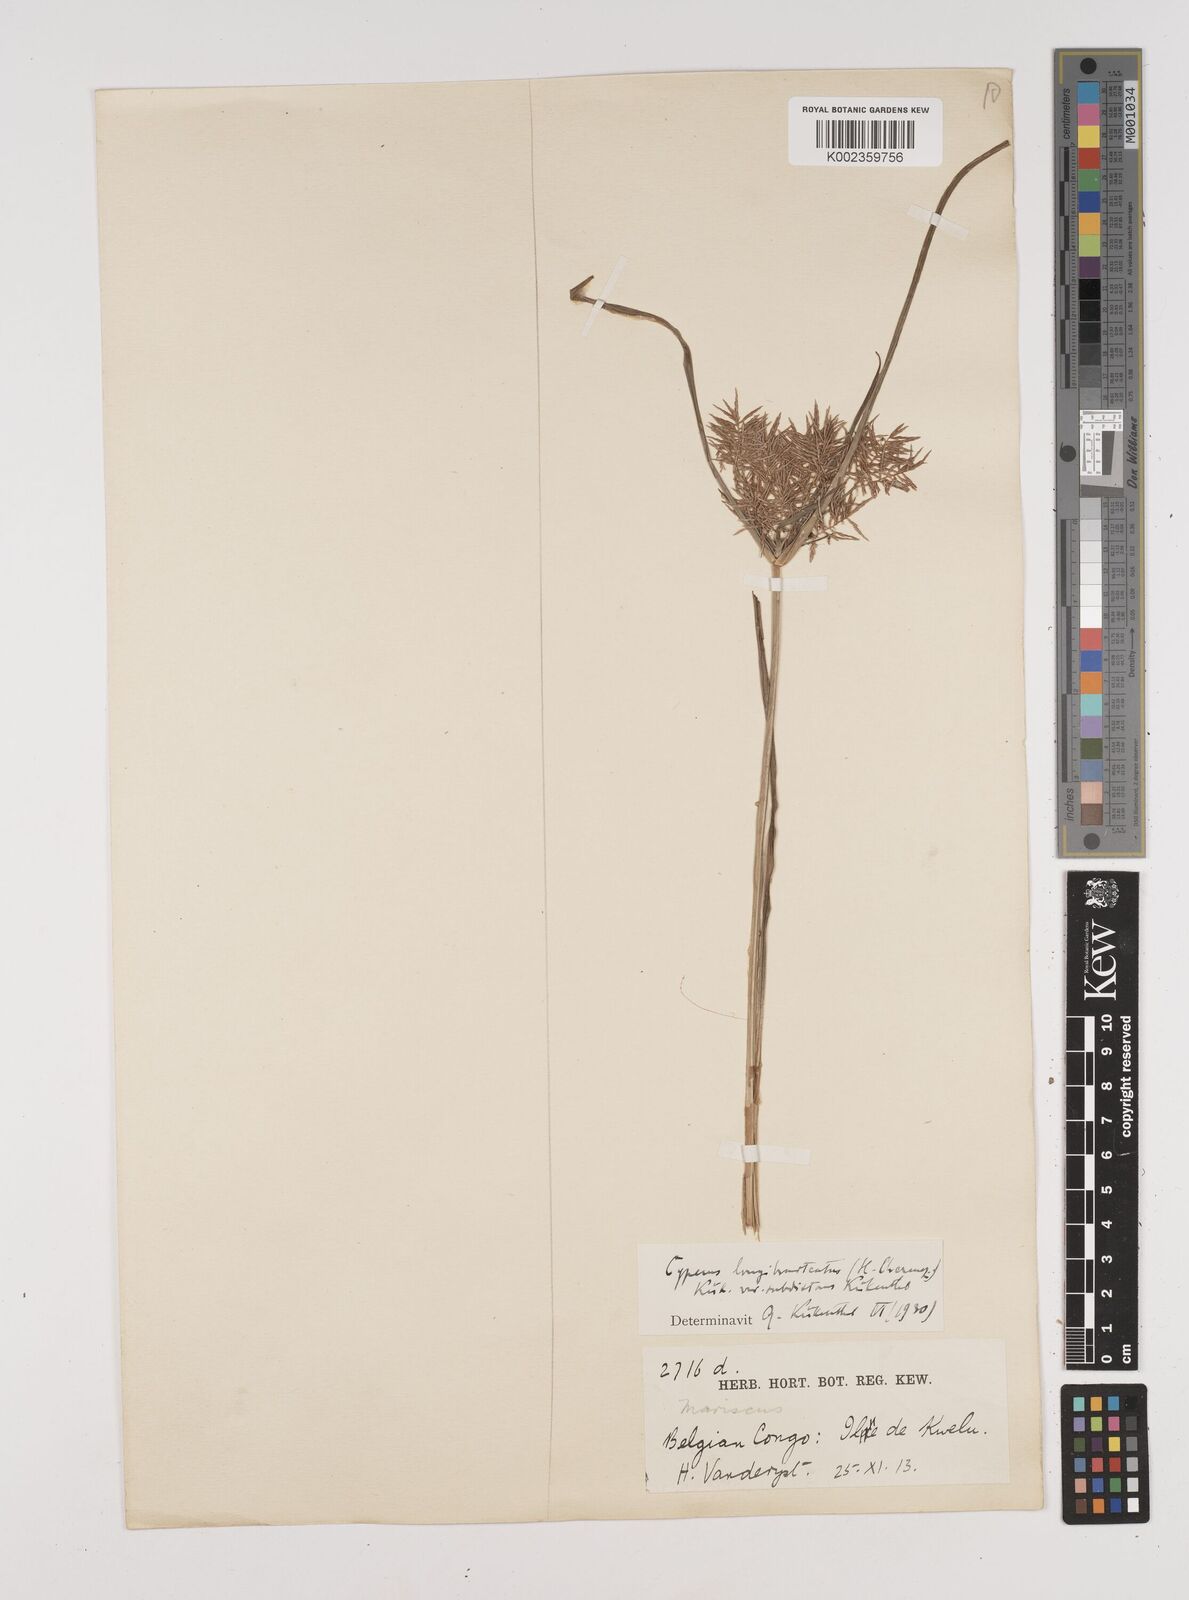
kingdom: Plantae
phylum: Tracheophyta
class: Liliopsida
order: Poales
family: Cyperaceae
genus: Cyperus
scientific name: Cyperus distans
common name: Slender cyperus
